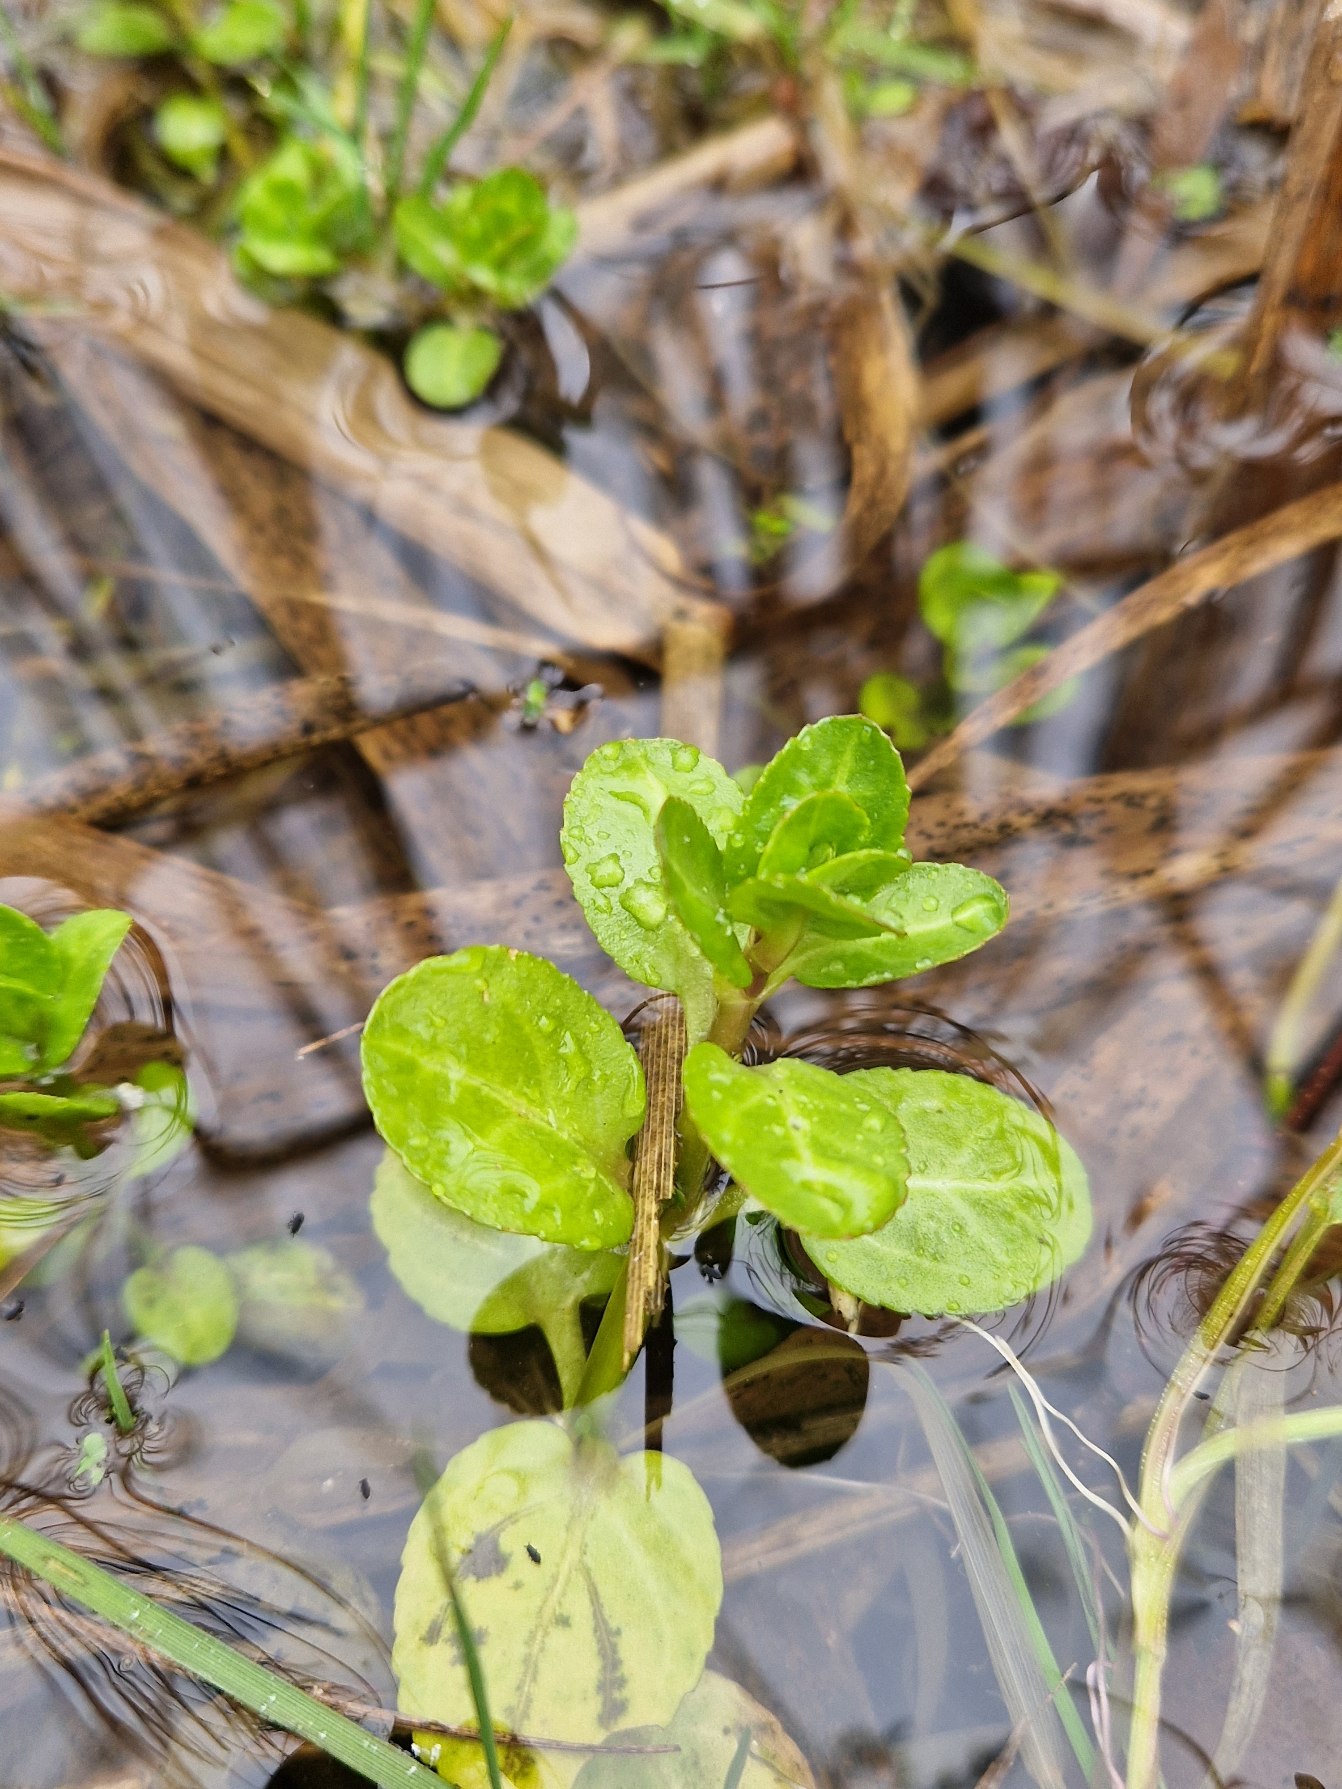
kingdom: Plantae
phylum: Tracheophyta
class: Magnoliopsida
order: Lamiales
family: Plantaginaceae
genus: Veronica
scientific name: Veronica beccabunga
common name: Tykbladet ærenpris
